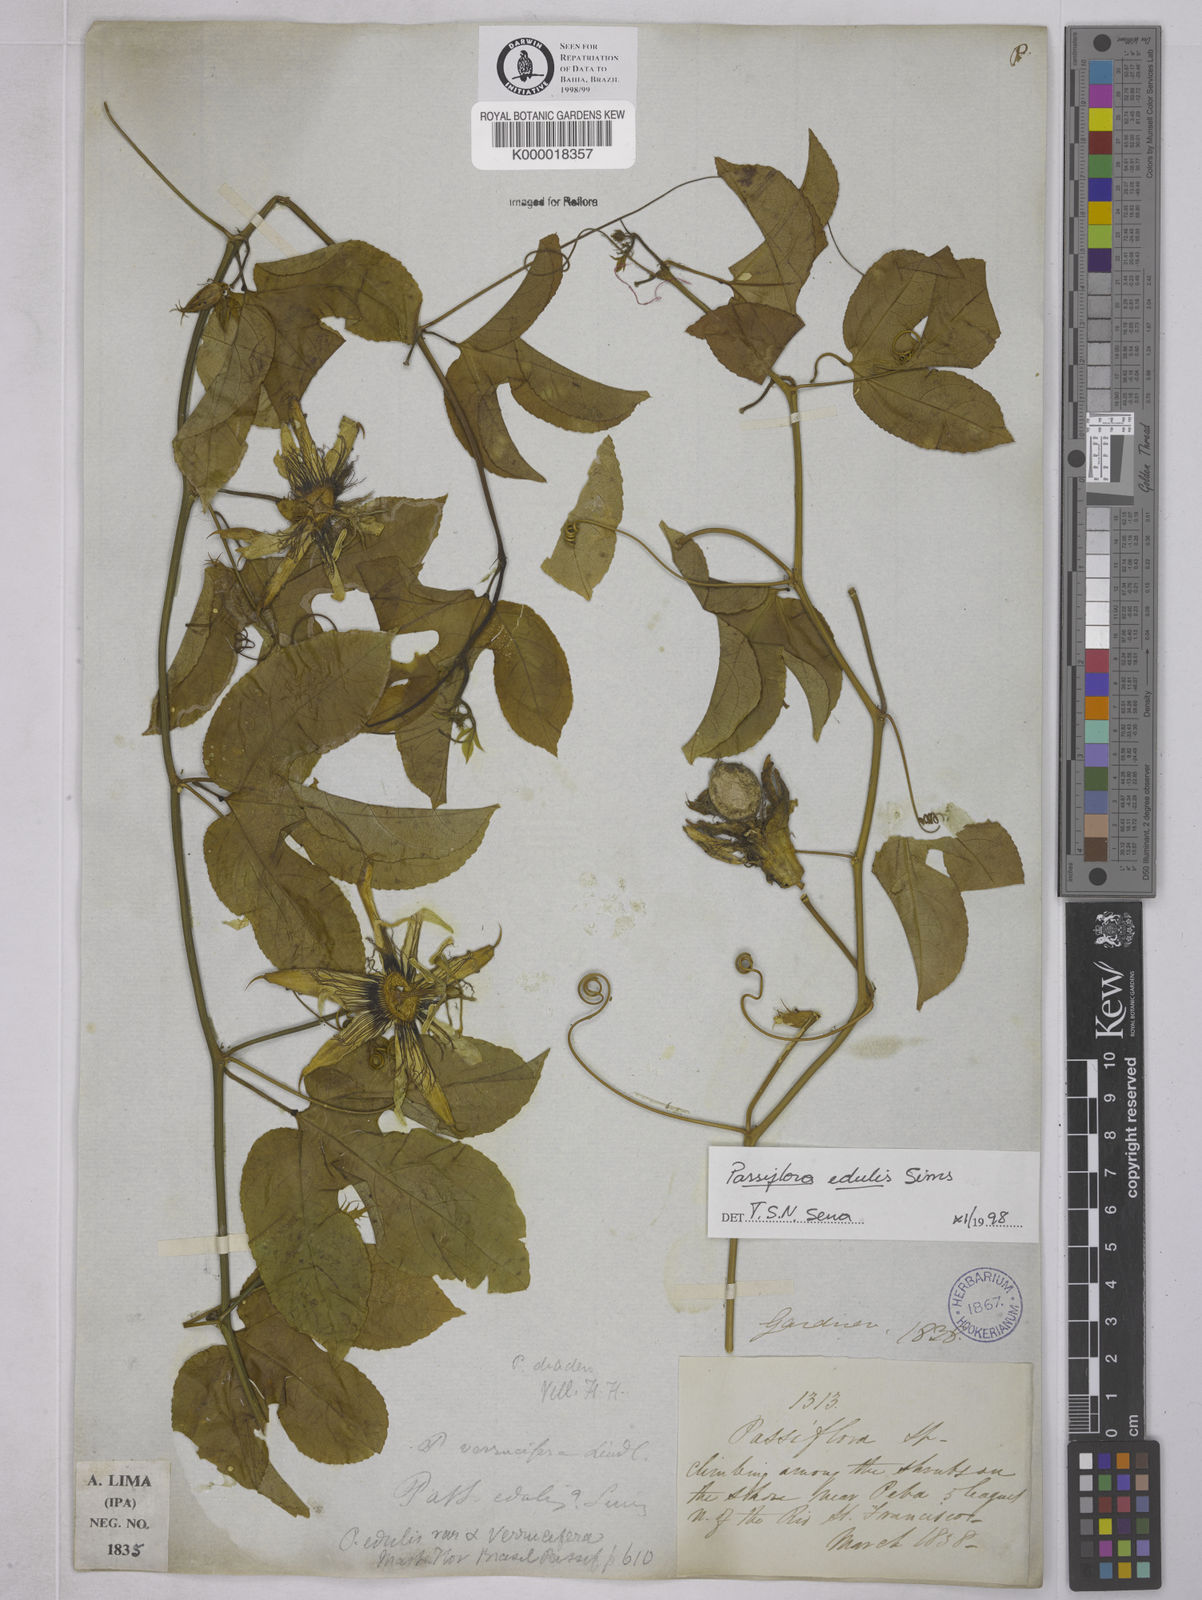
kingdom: Plantae
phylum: Tracheophyta
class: Magnoliopsida
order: Malpighiales
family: Passifloraceae
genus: Passiflora
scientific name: Passiflora edulis
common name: Purple granadilla
